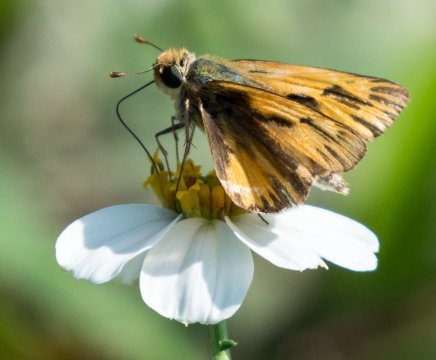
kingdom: Animalia
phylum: Arthropoda
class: Insecta
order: Lepidoptera
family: Hesperiidae
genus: Hylephila
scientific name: Hylephila phyleus
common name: Fiery Skipper
